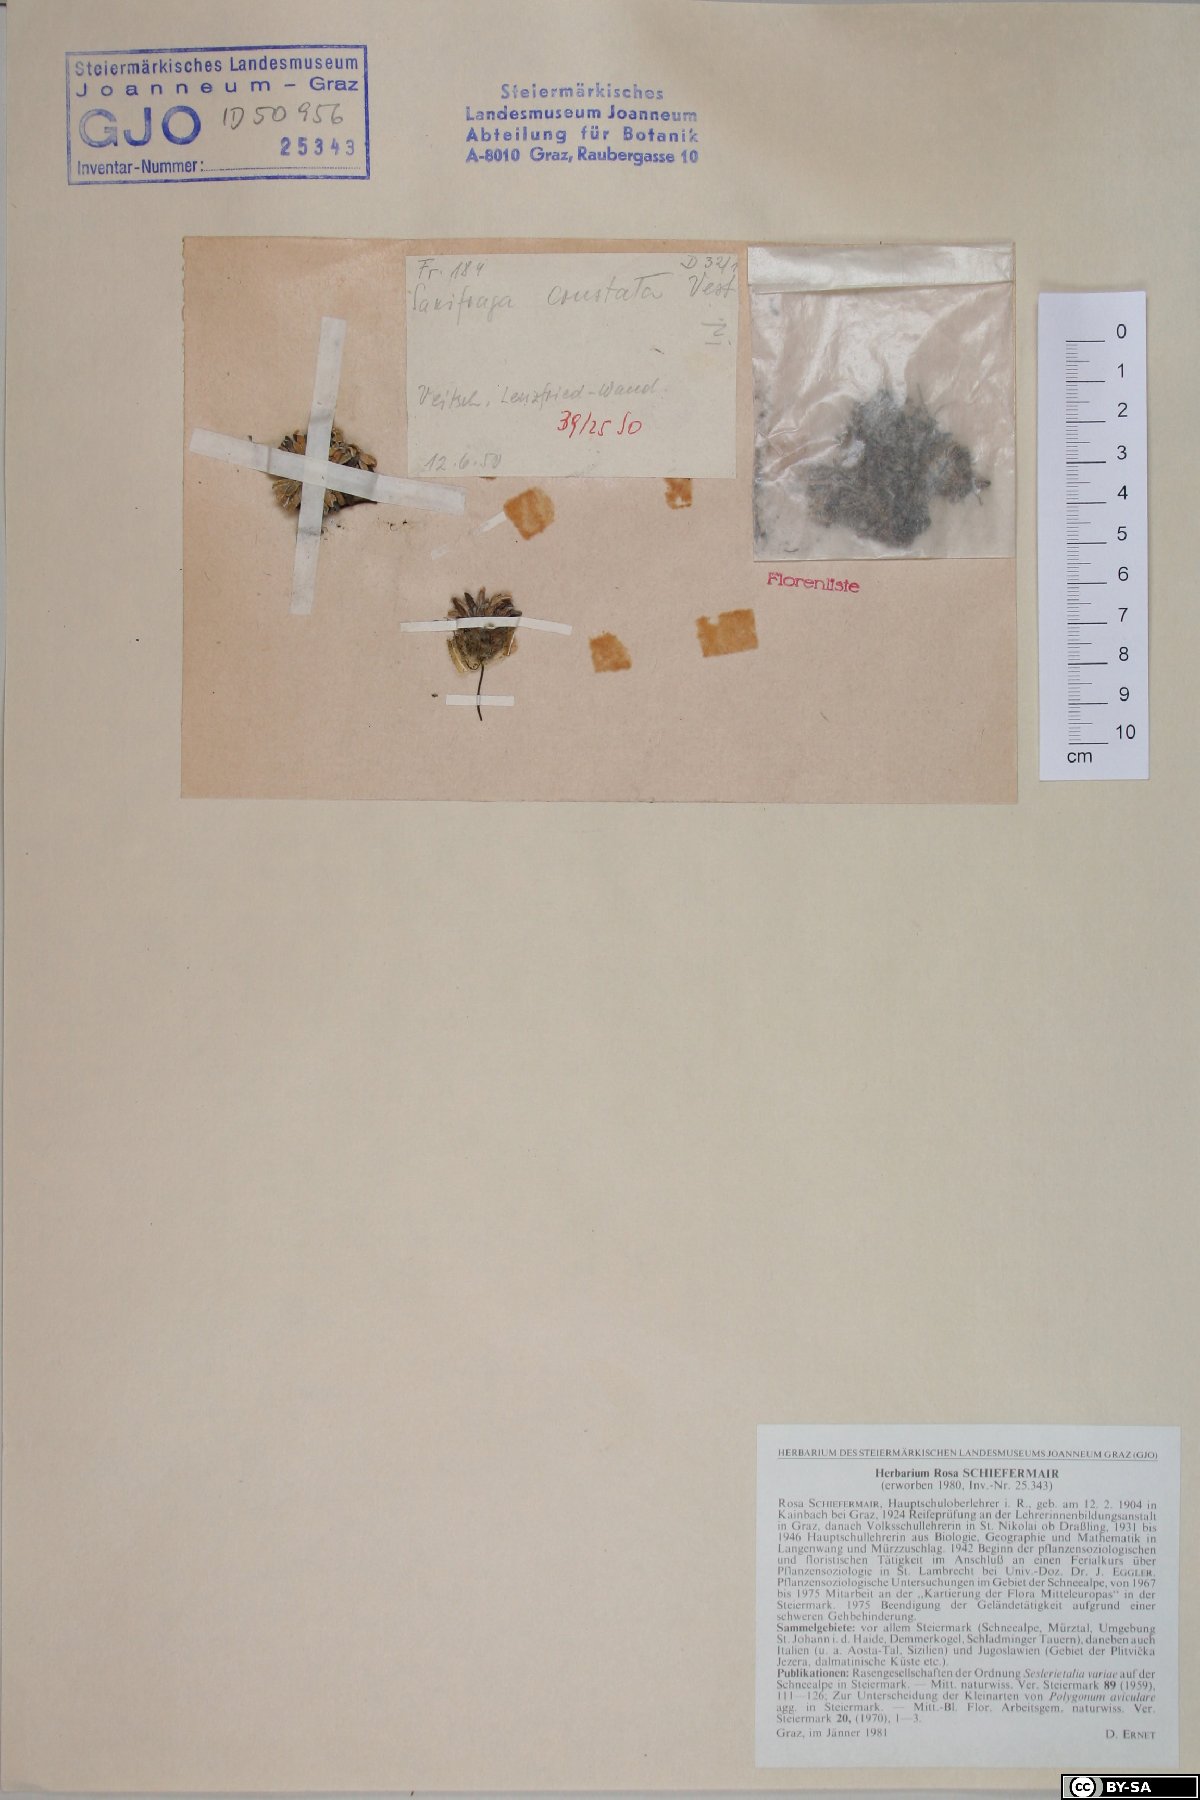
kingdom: Plantae
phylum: Tracheophyta
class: Magnoliopsida
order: Saxifragales
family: Saxifragaceae
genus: Saxifraga
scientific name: Saxifraga crustata
